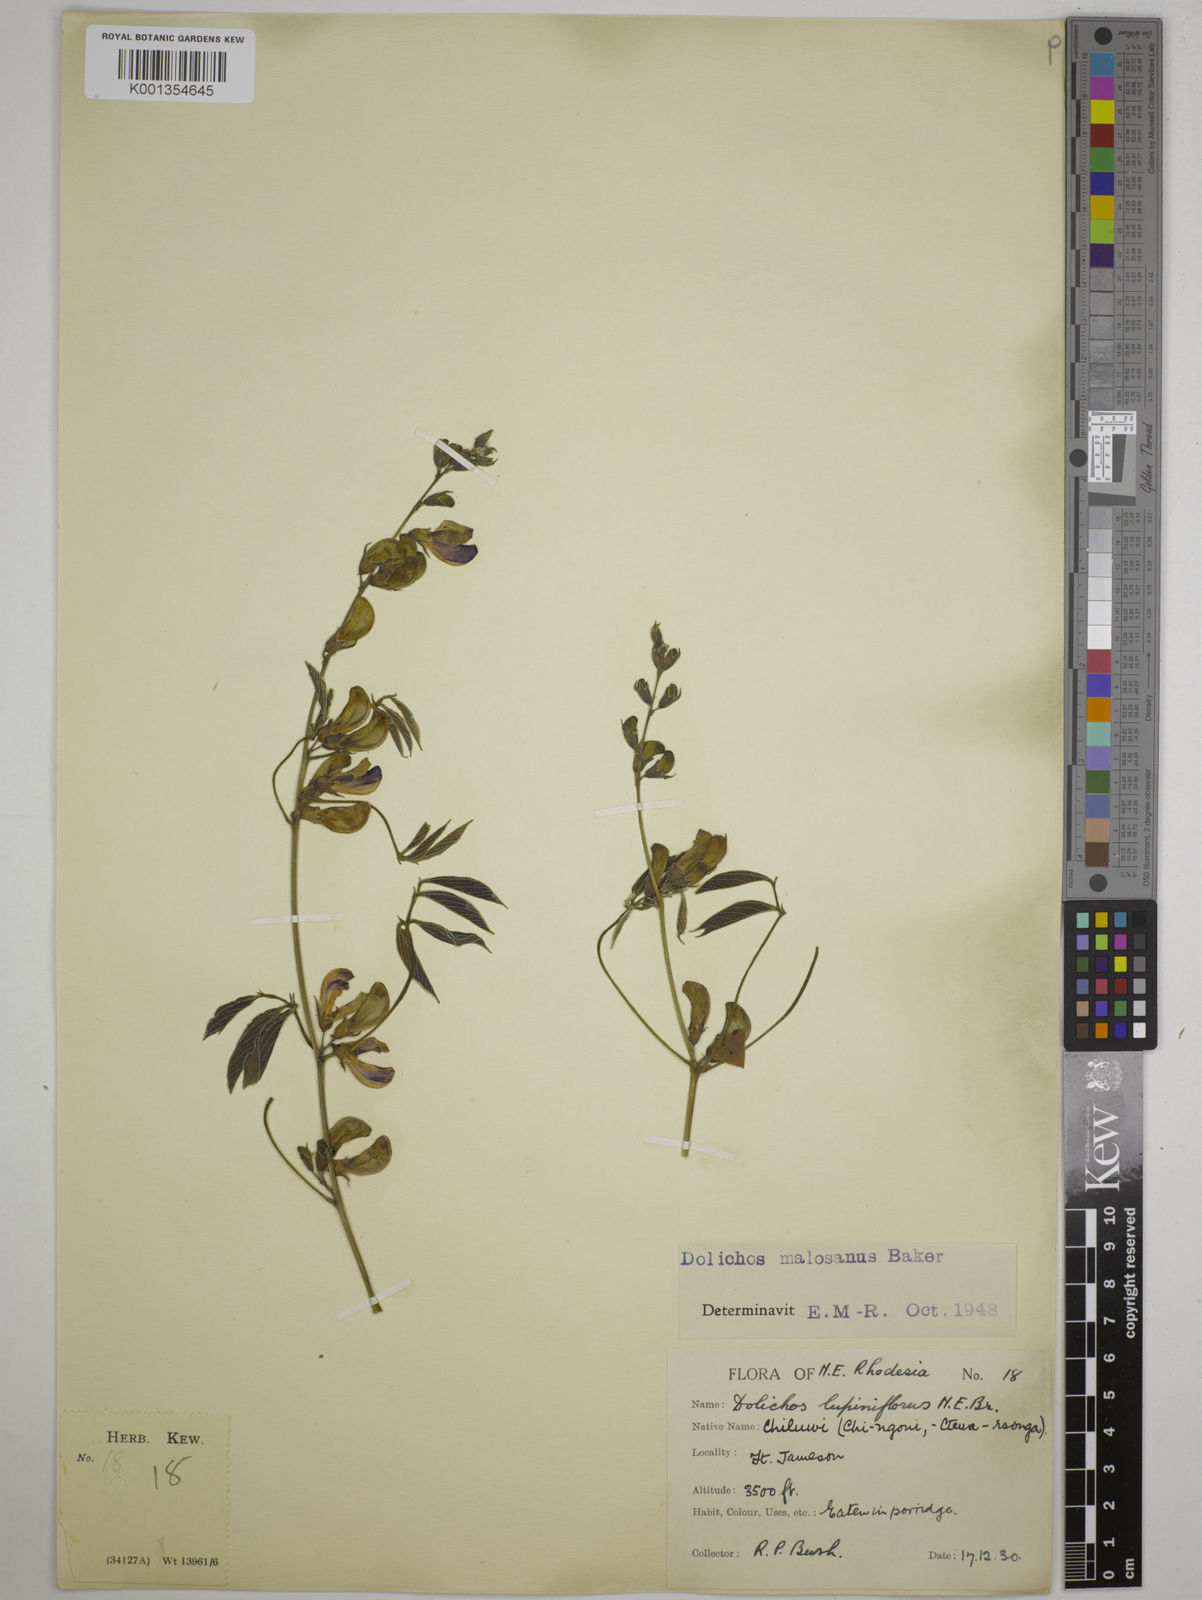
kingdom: Plantae
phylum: Tracheophyta
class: Magnoliopsida
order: Fabales
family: Fabaceae
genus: Dolichos
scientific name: Dolichos kilimandscharicus
